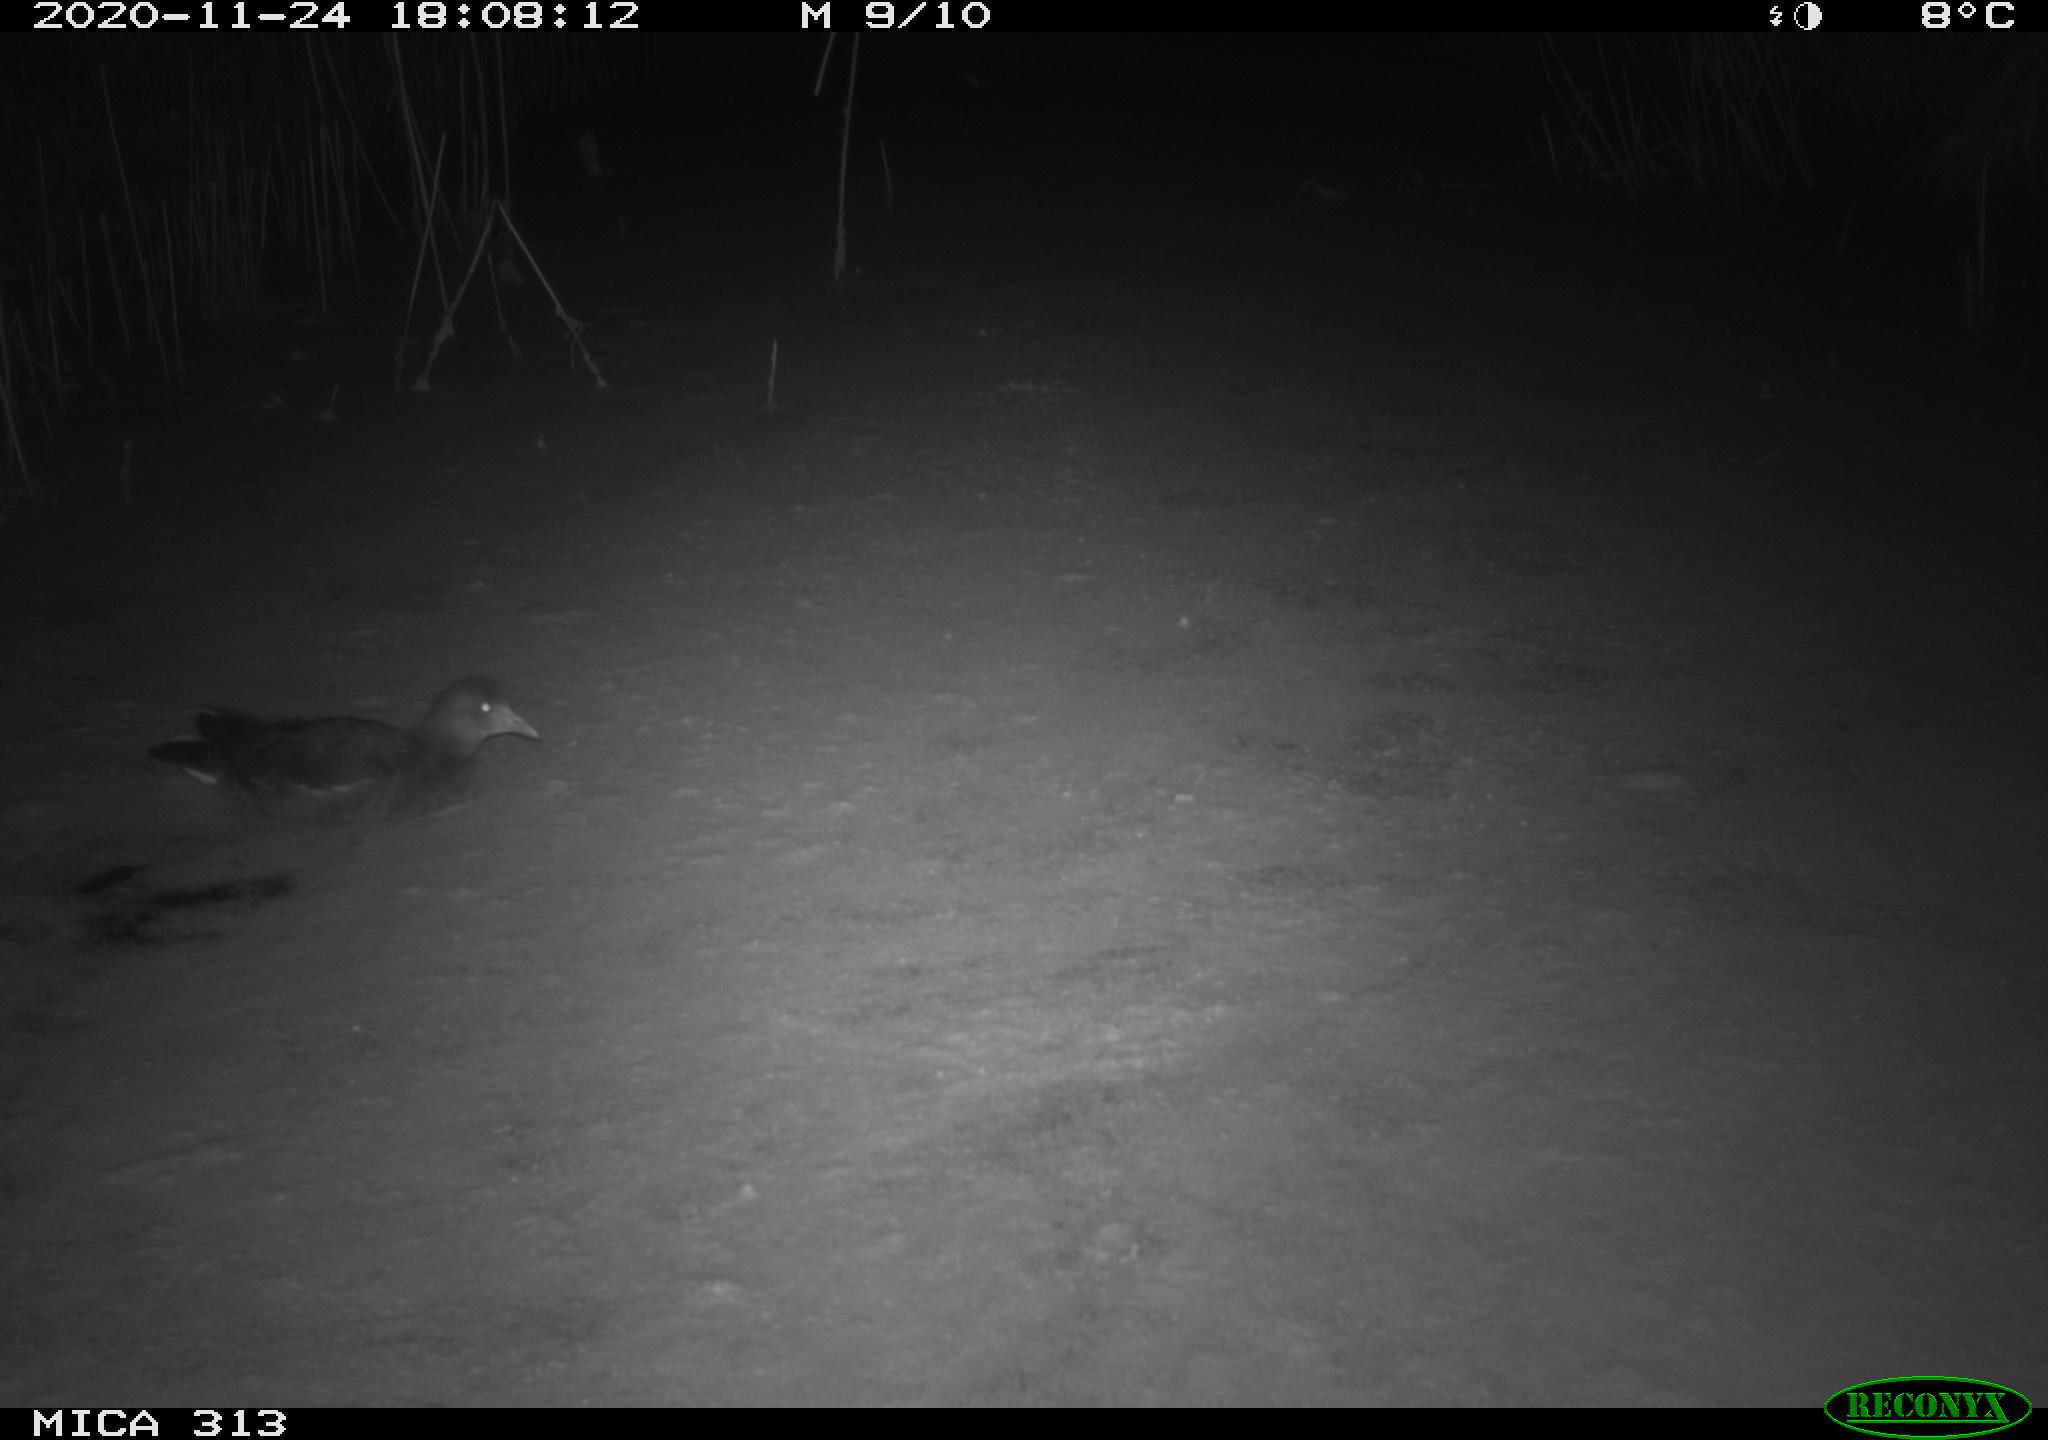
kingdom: Animalia
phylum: Chordata
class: Aves
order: Gruiformes
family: Rallidae
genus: Gallinula
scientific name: Gallinula chloropus
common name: Common moorhen
